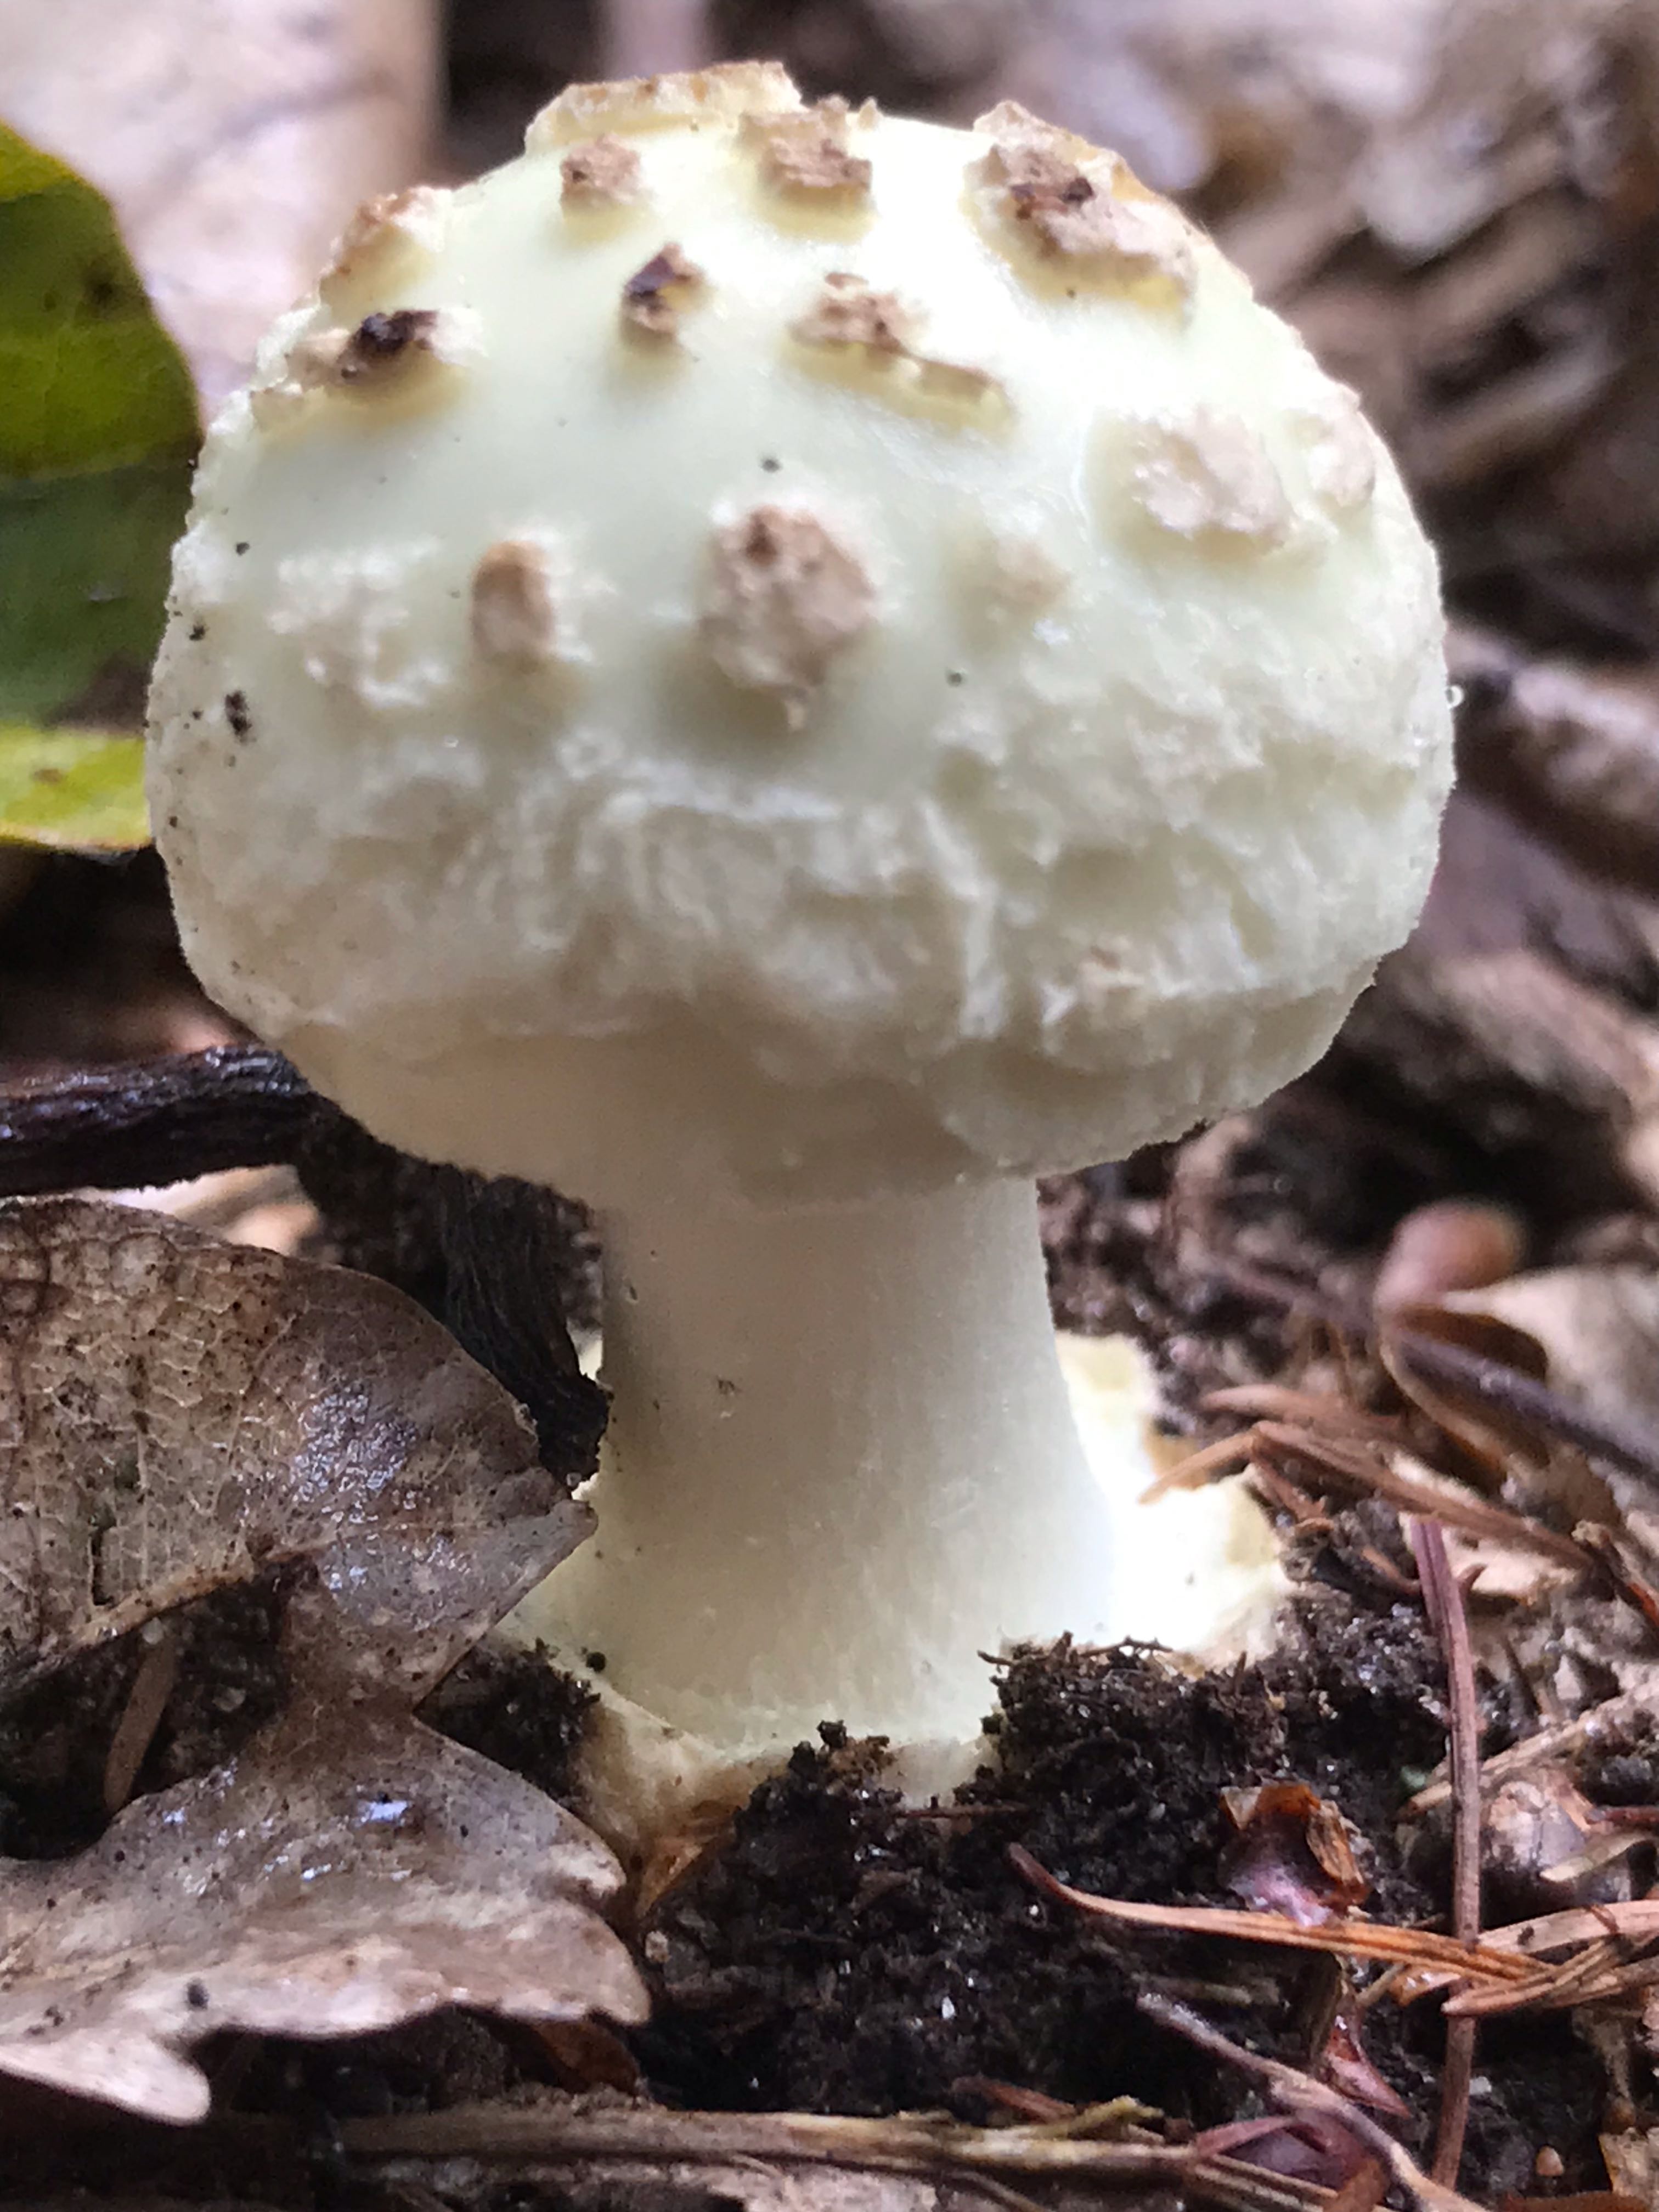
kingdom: Fungi
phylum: Basidiomycota
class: Agaricomycetes
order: Agaricales
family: Amanitaceae
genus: Amanita
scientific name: Amanita citrina
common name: kugleknoldet fluesvamp
